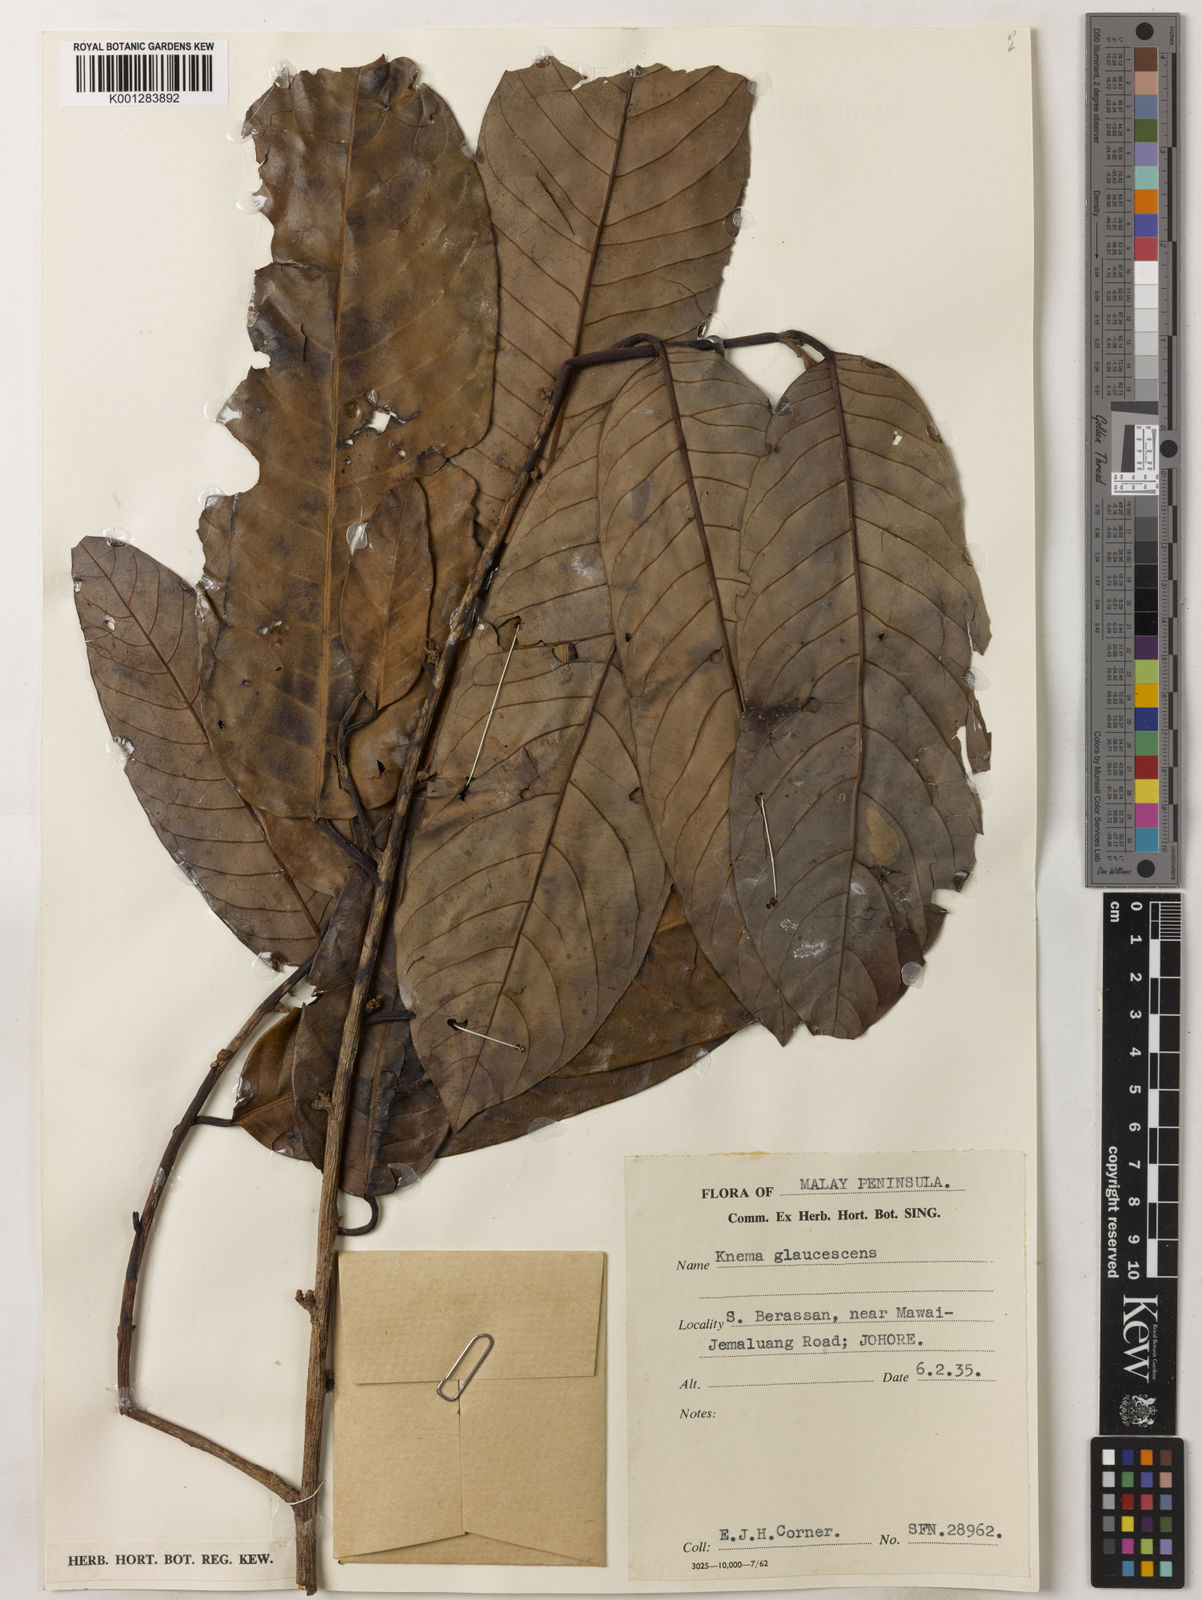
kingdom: Plantae
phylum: Tracheophyta
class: Magnoliopsida
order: Magnoliales
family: Myristicaceae
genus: Knema
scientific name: Knema
